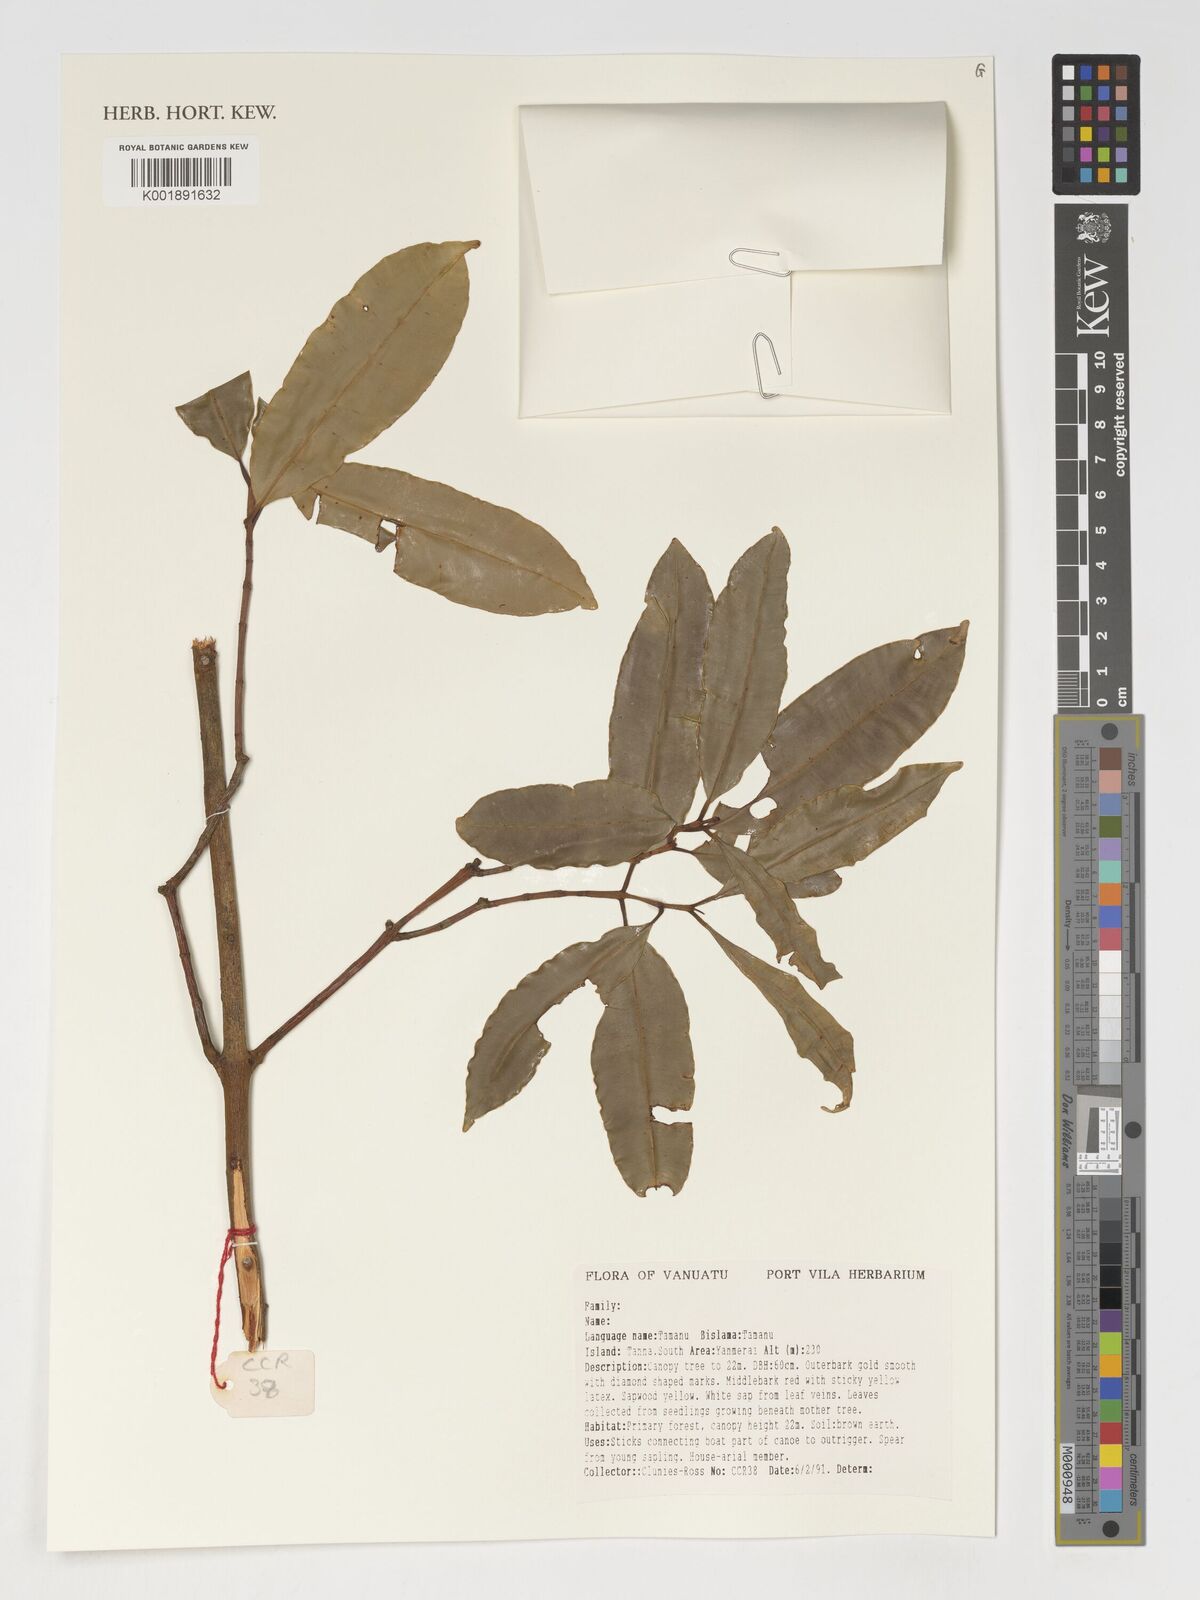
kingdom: Plantae
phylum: Tracheophyta
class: Magnoliopsida
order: Malpighiales
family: Calophyllaceae
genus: Calophyllum
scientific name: Calophyllum neoebudicum
